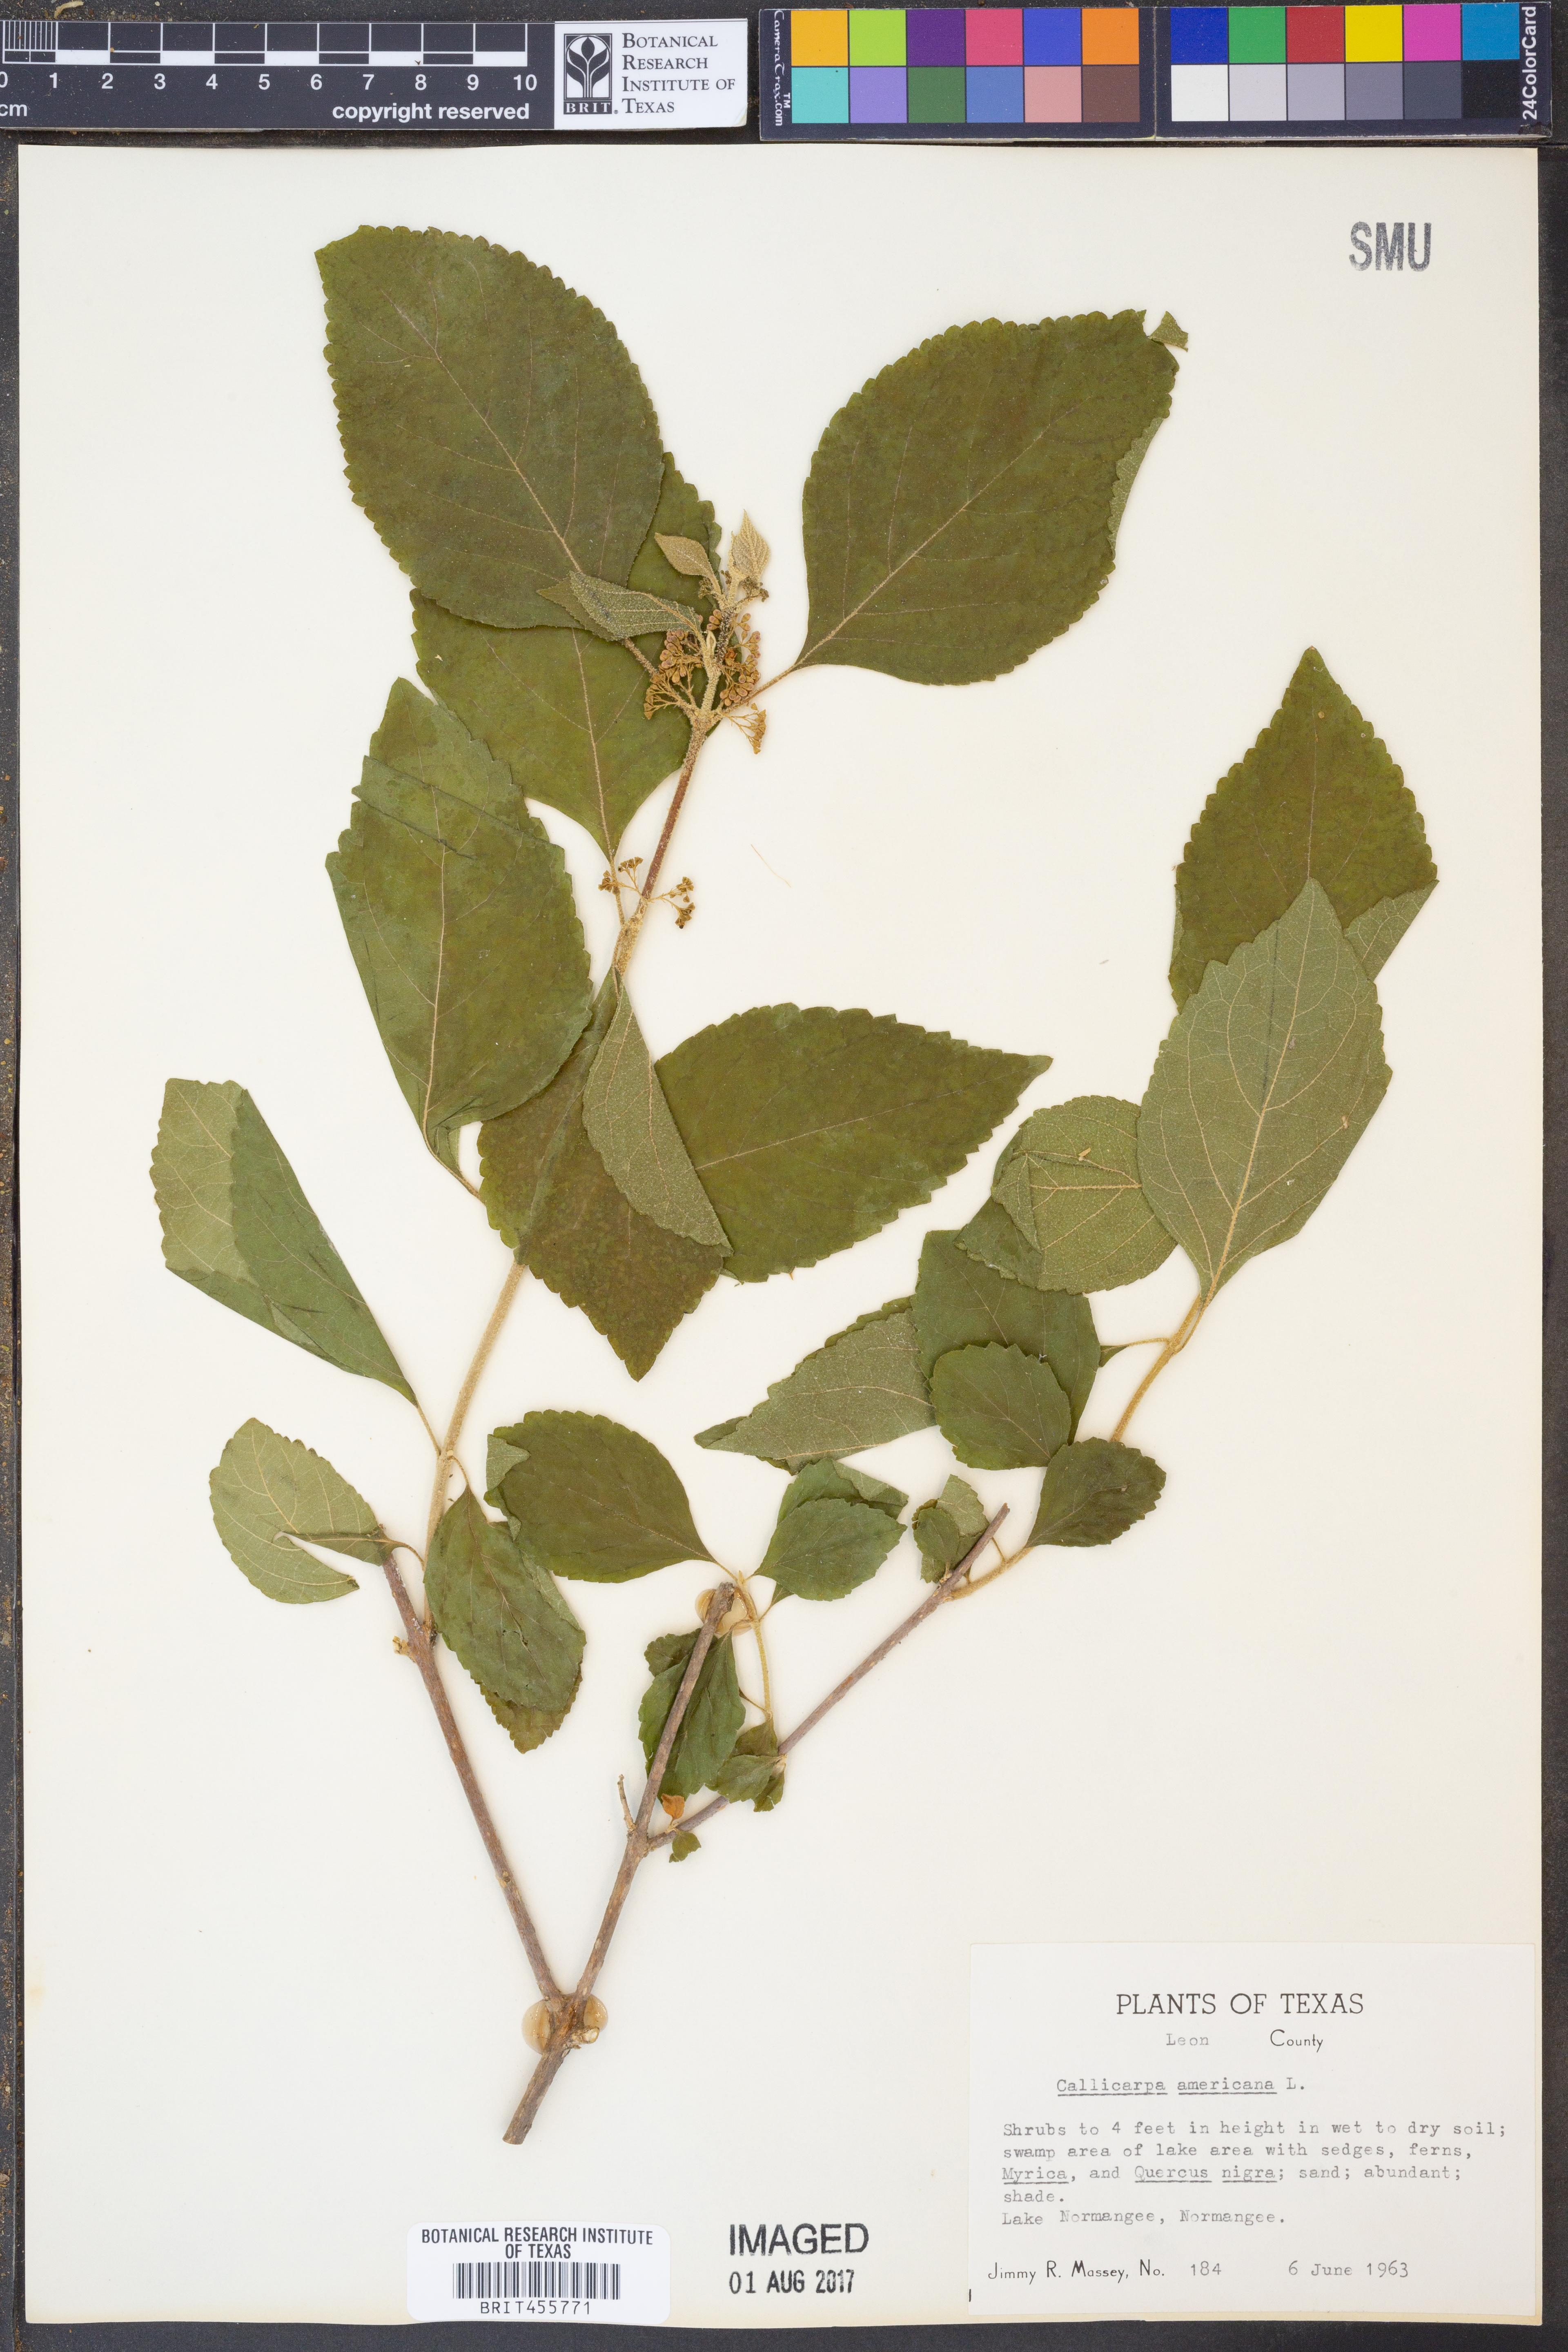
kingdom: Plantae
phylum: Tracheophyta
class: Magnoliopsida
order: Lamiales
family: Lamiaceae
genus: Callicarpa
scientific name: Callicarpa americana
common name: American beautyberry
